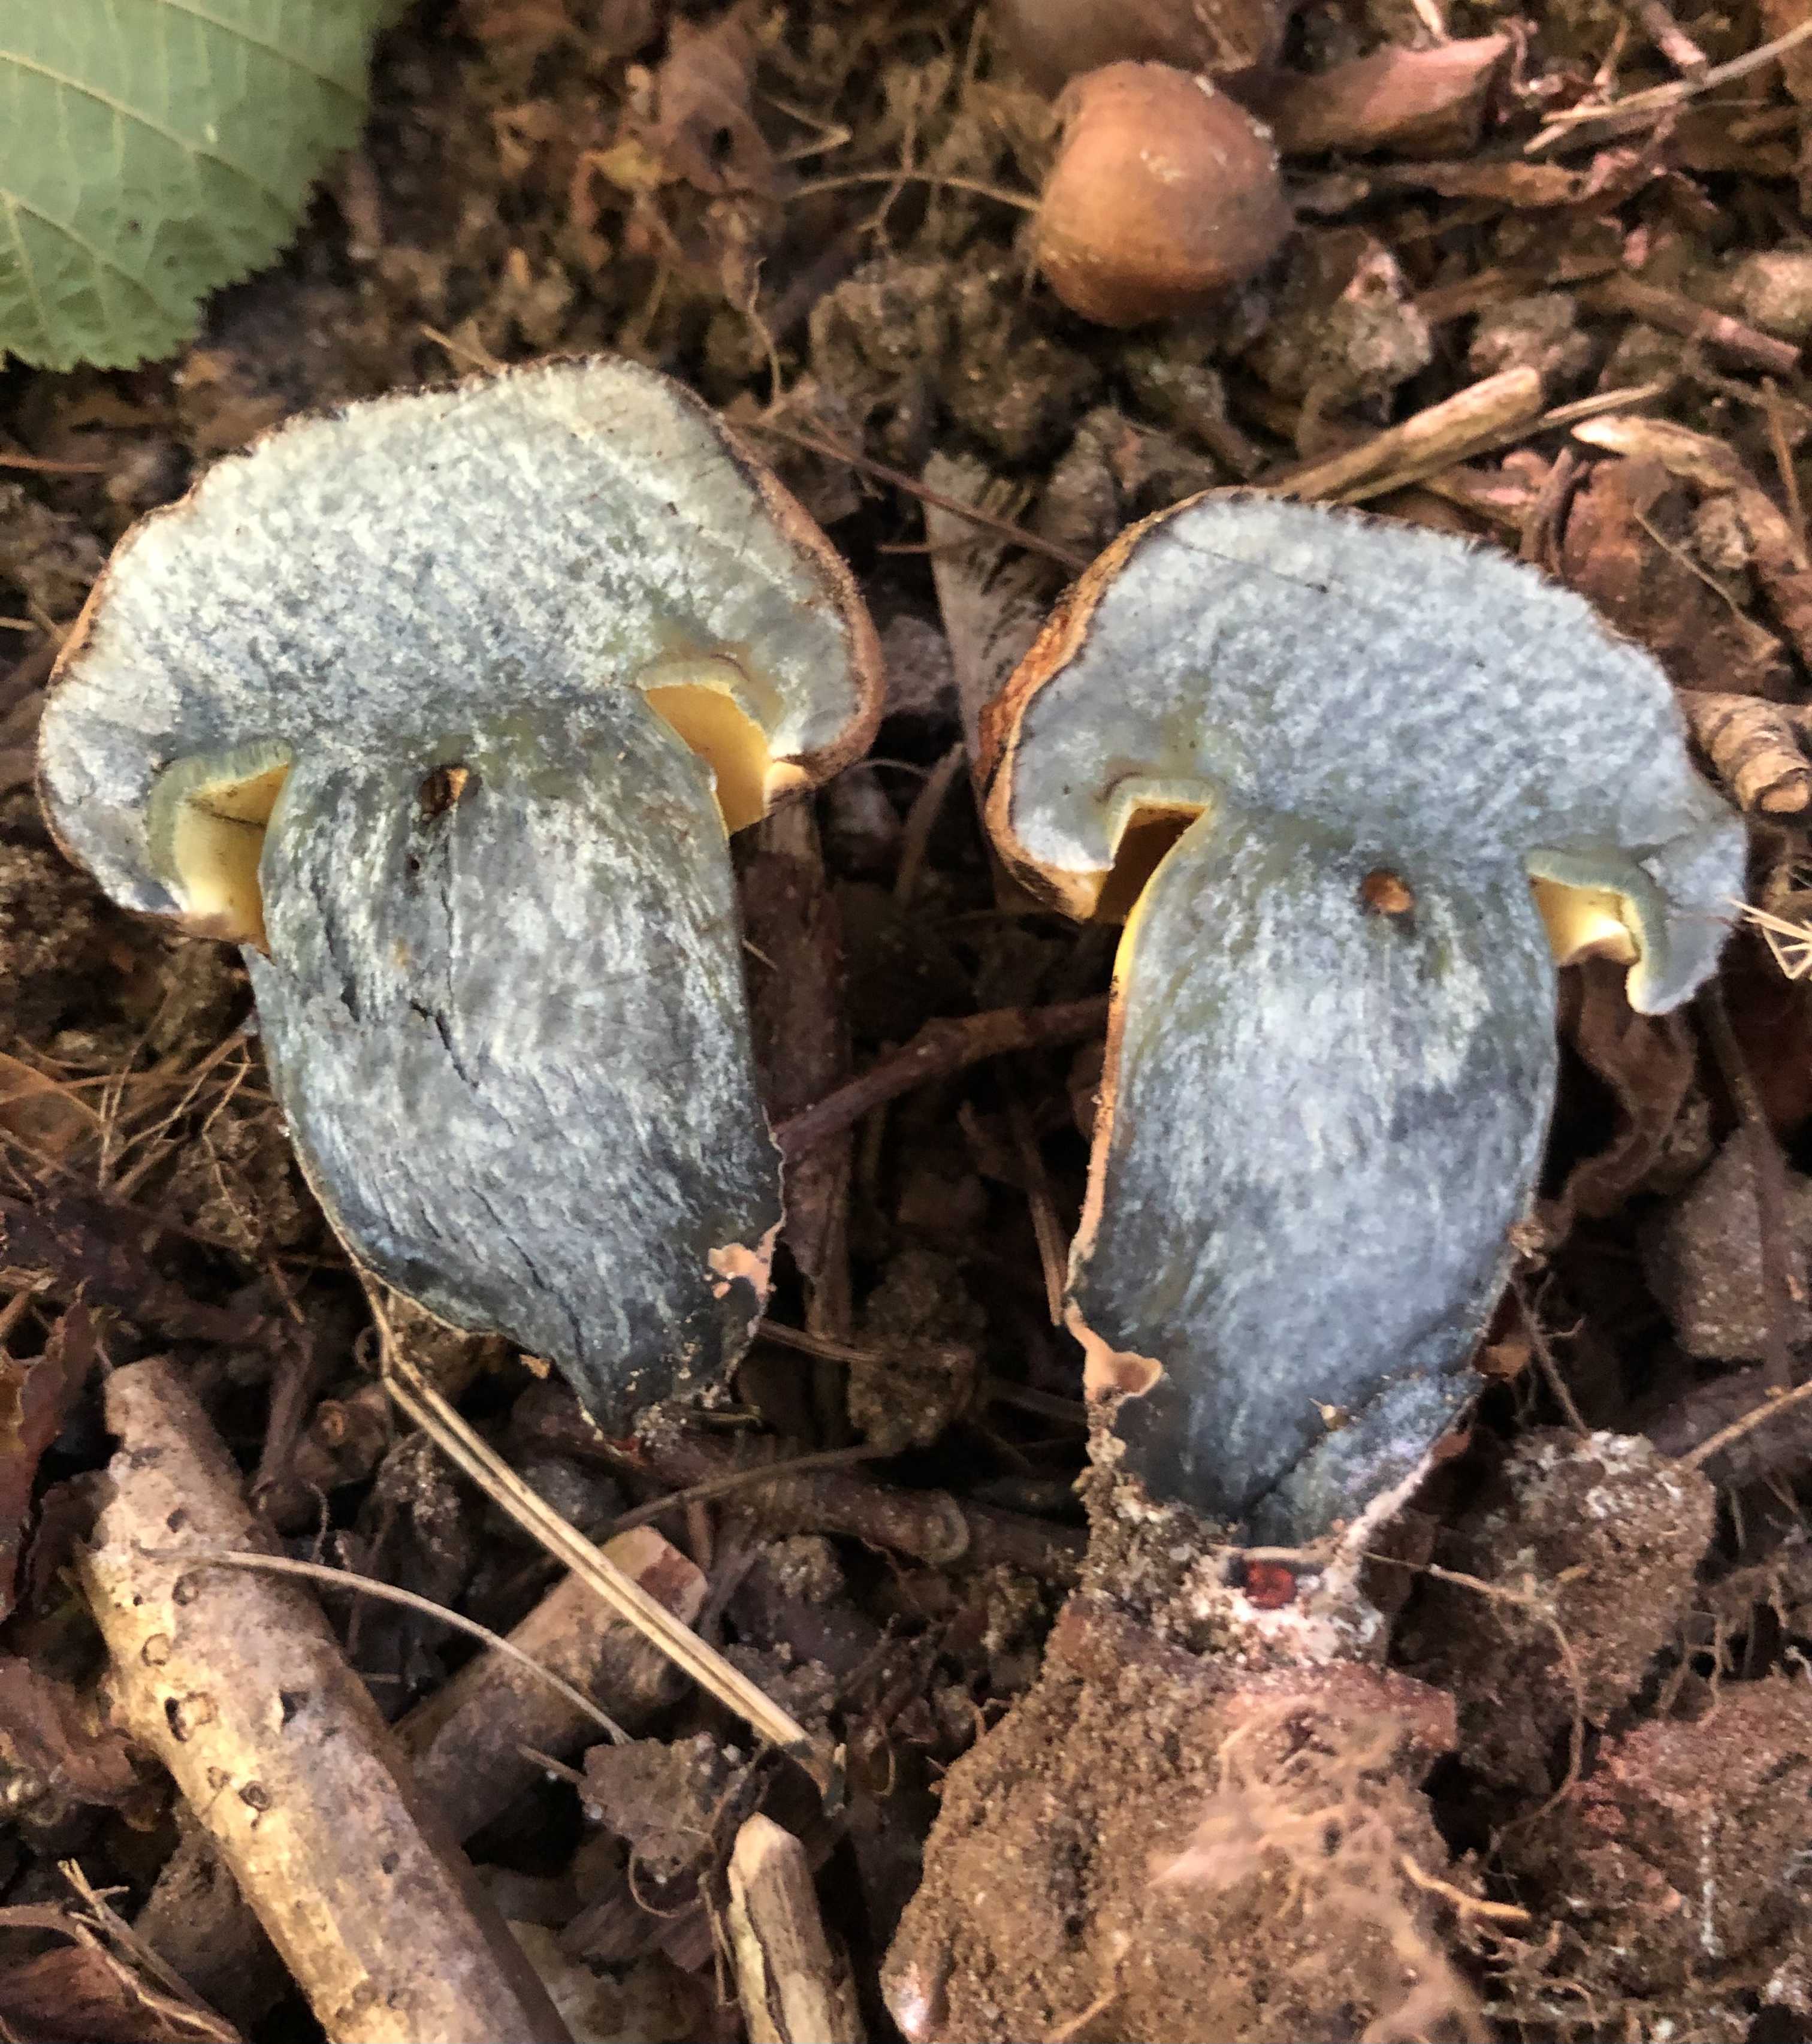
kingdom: Fungi
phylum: Basidiomycota
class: Agaricomycetes
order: Boletales
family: Boletaceae
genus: Cyanoboletus
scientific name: Cyanoboletus pulverulentus
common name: sortblånende rørhat
